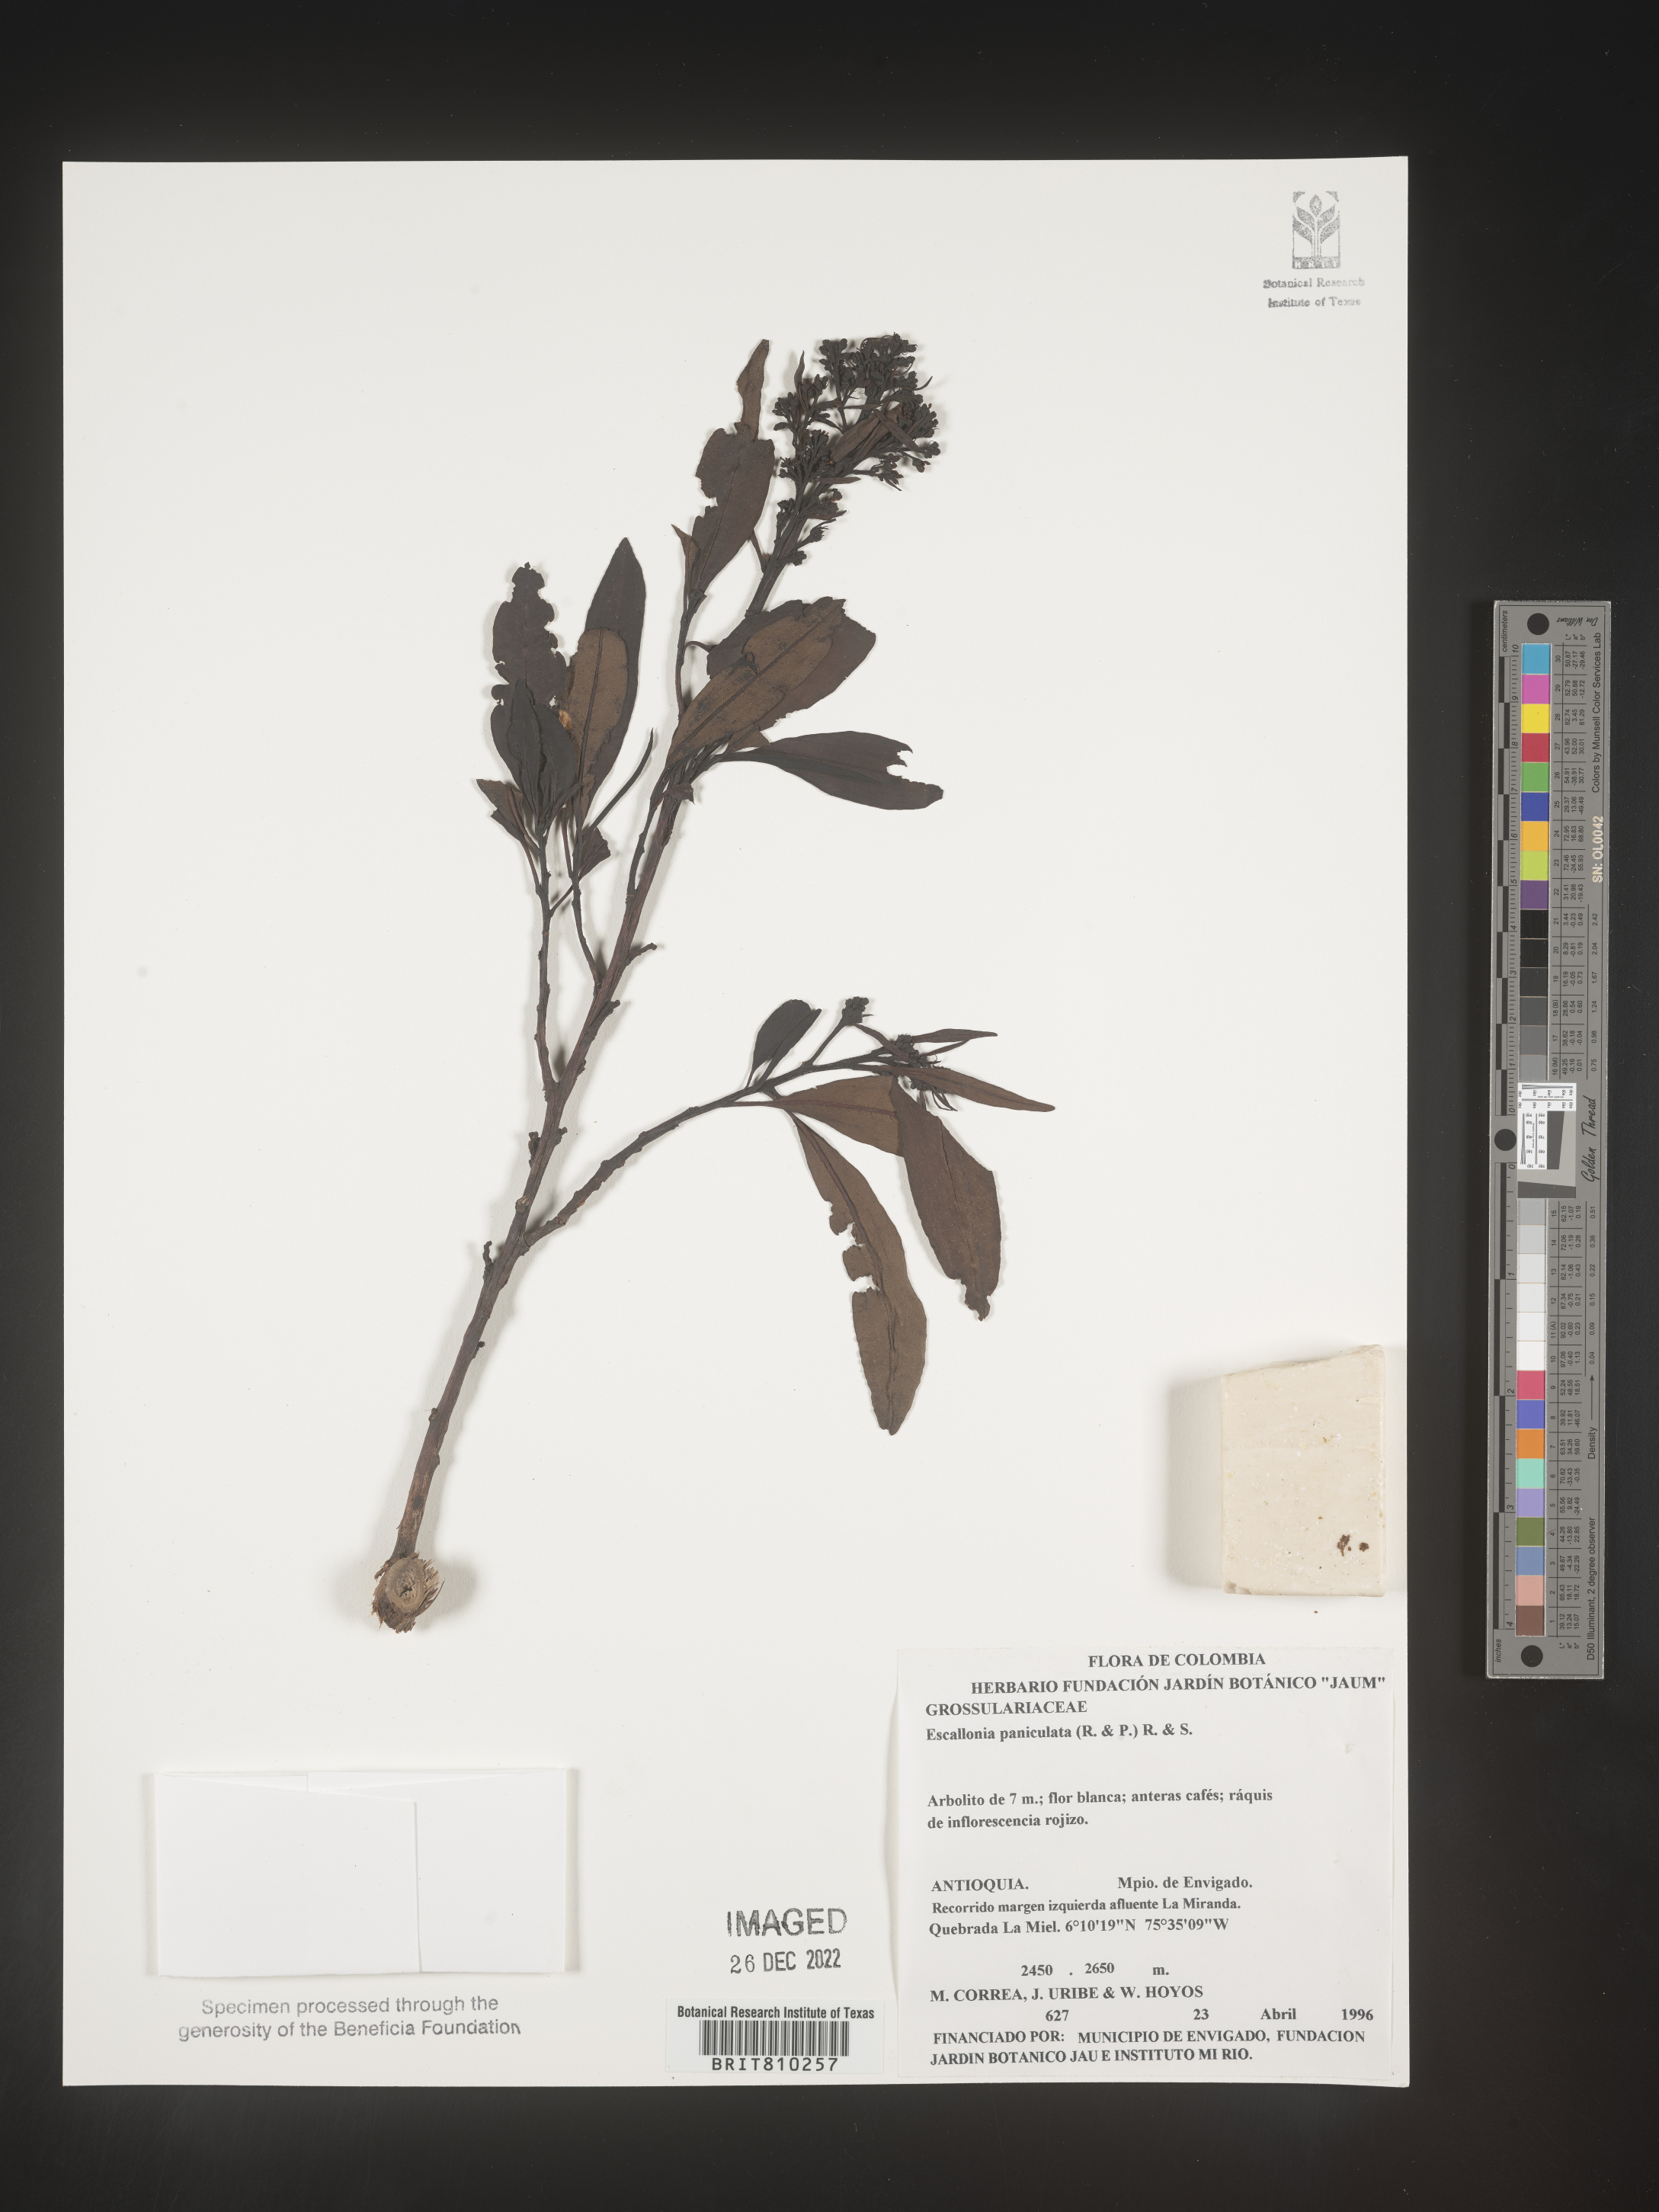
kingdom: Plantae
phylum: Tracheophyta
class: Magnoliopsida
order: Escalloniales
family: Escalloniaceae
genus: Escallonia
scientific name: Escallonia paniculata
